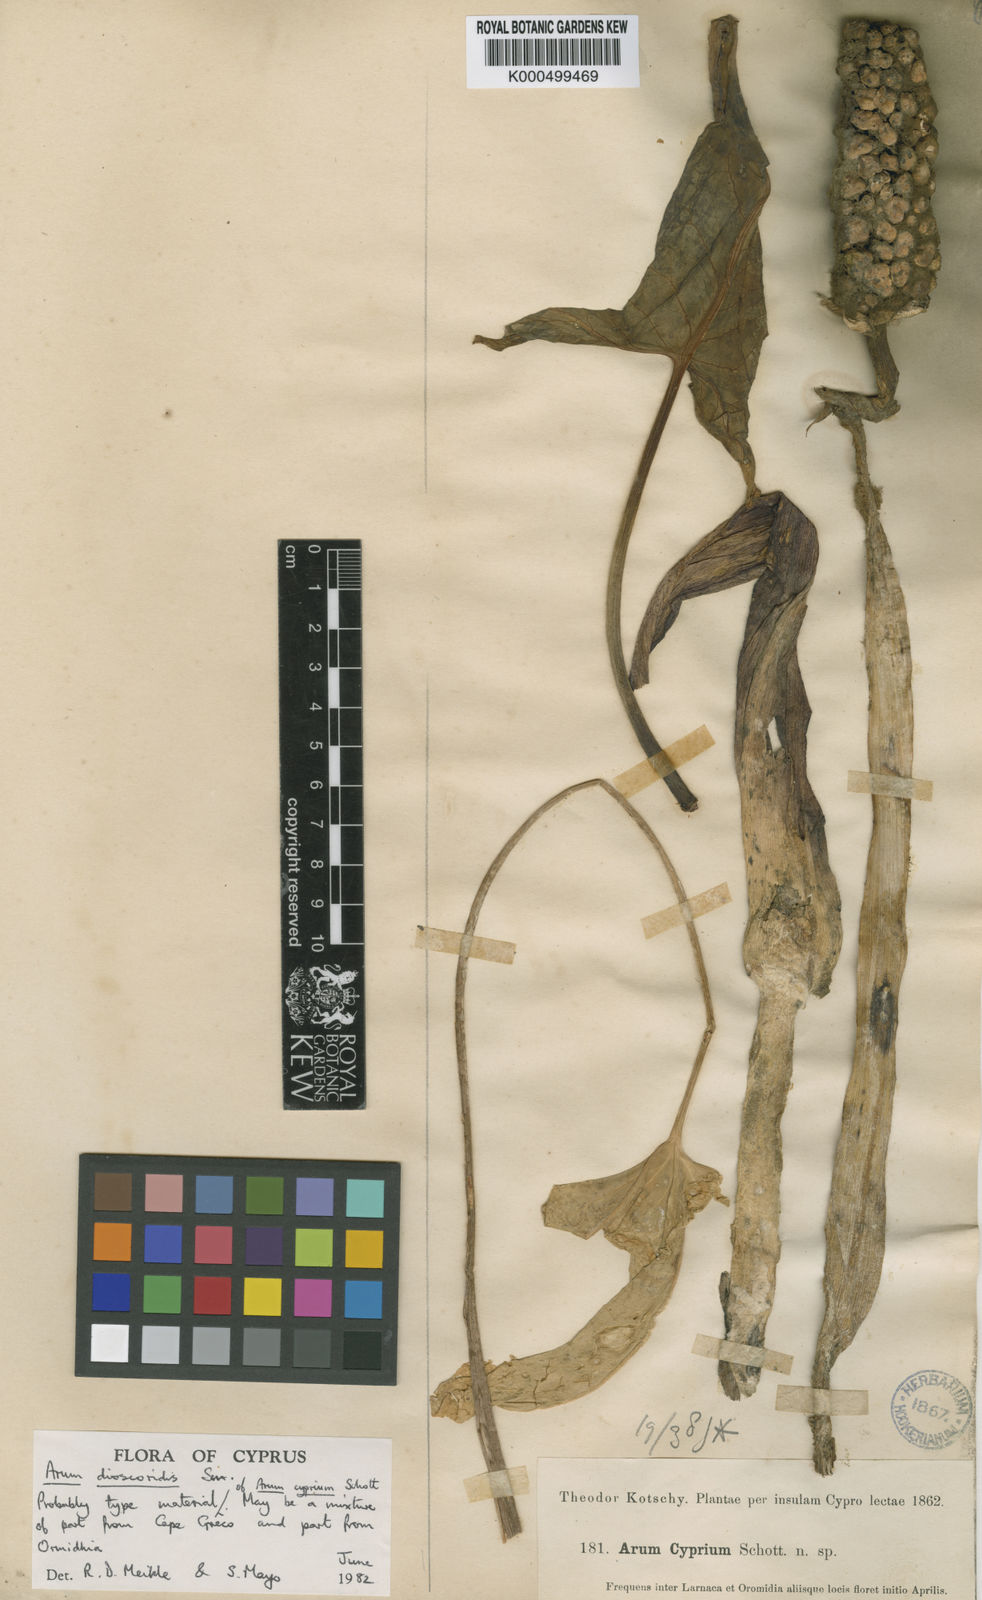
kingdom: Plantae
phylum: Tracheophyta
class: Liliopsida
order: Alismatales
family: Araceae
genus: Arum
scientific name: Arum dioscoridis
